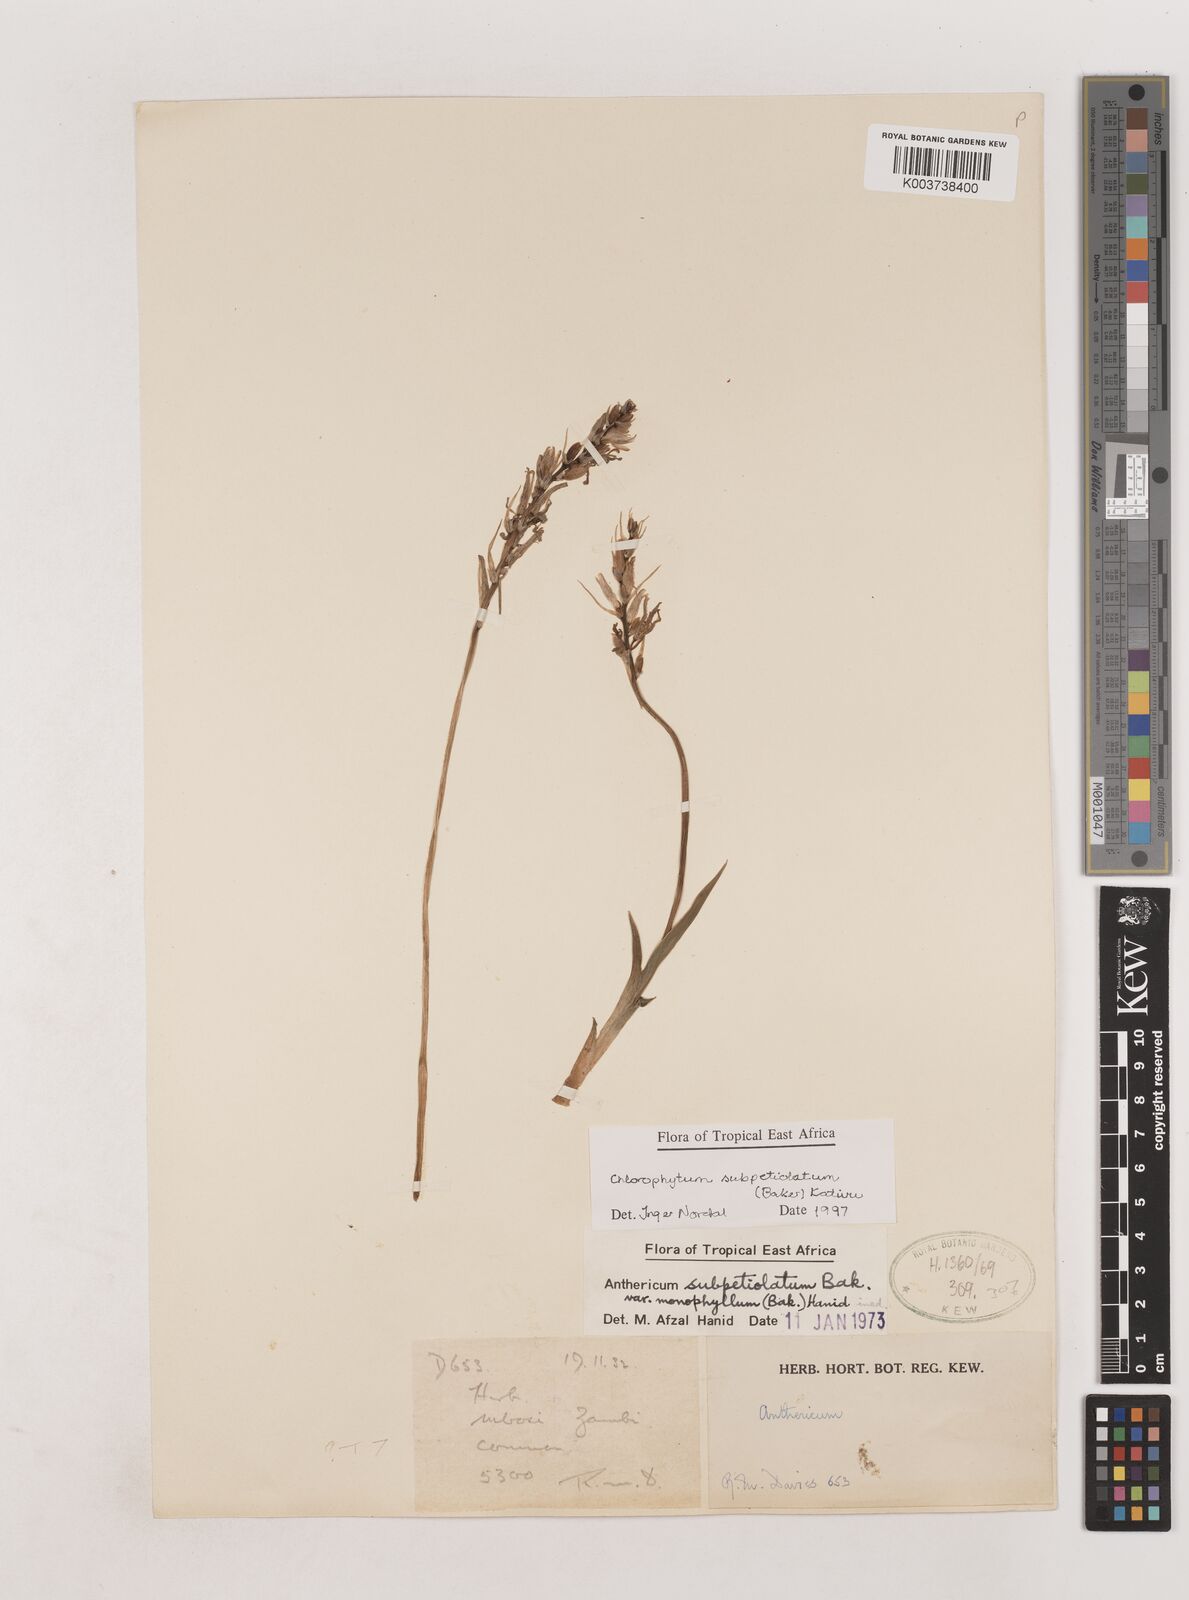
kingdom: Plantae
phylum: Tracheophyta
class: Liliopsida
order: Asparagales
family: Asparagaceae
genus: Chlorophytum
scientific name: Chlorophytum subpetiolatum
